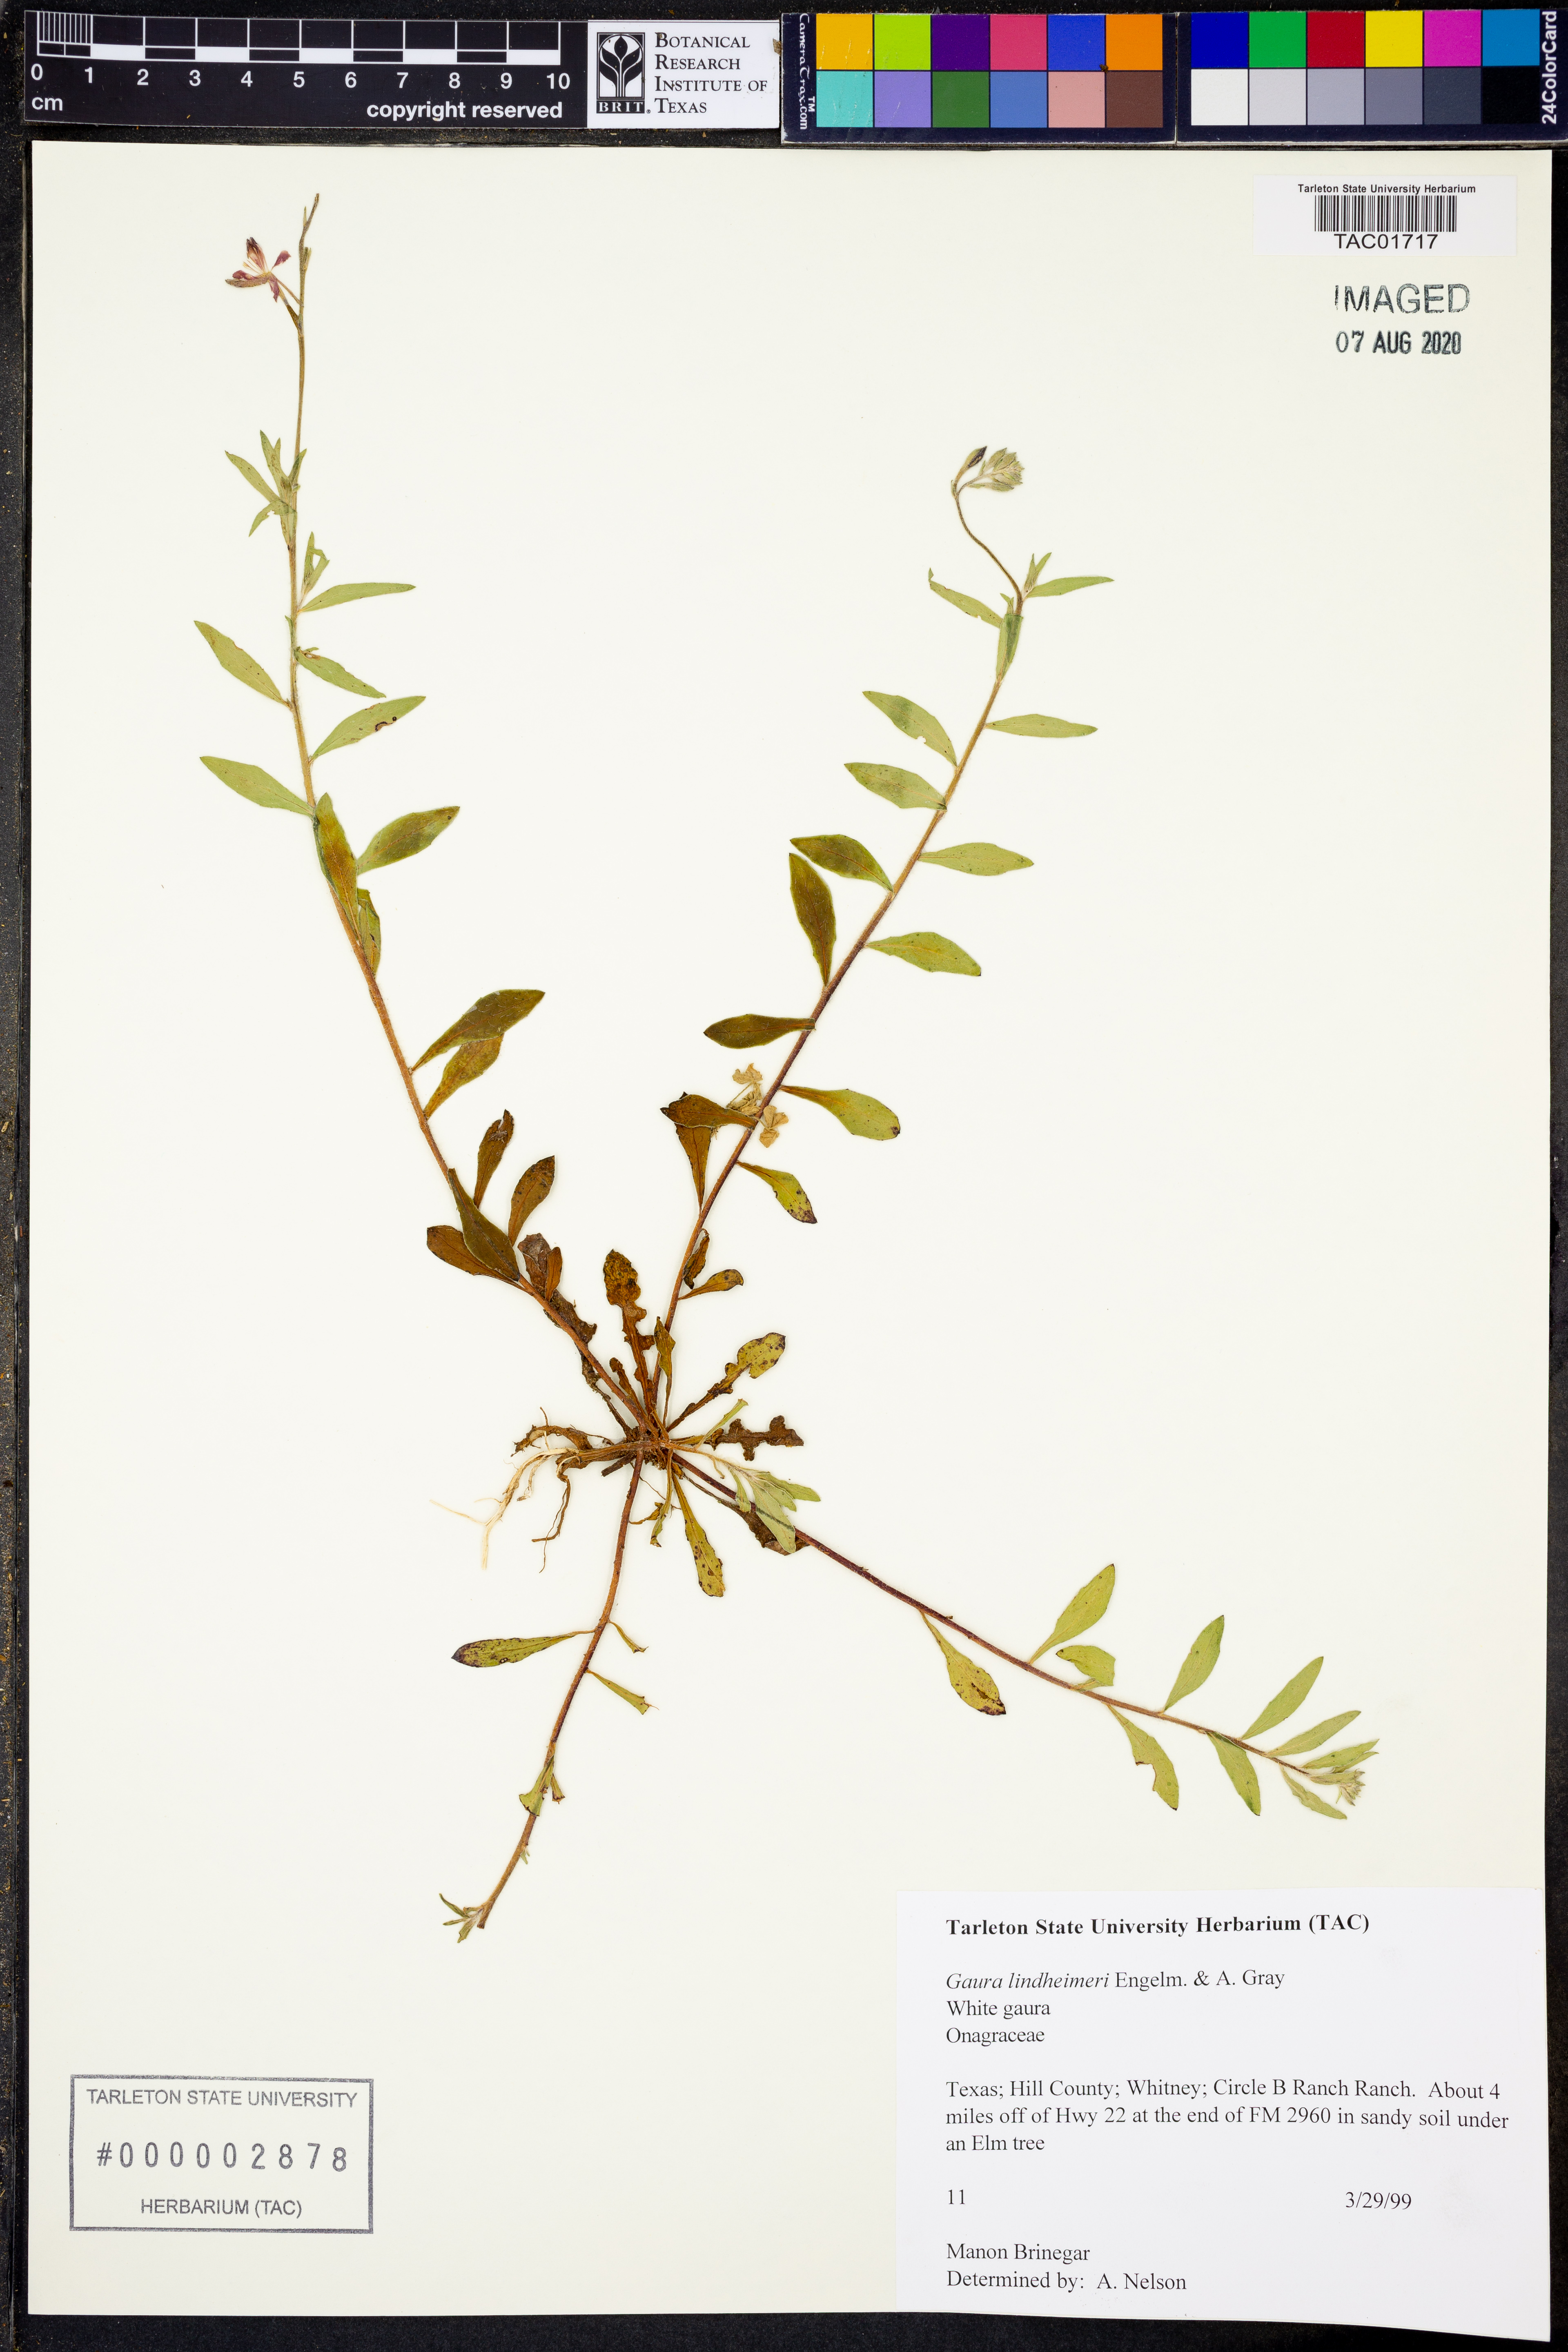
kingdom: Plantae
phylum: Tracheophyta
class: Magnoliopsida
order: Myrtales
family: Onagraceae
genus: Oenothera
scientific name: Oenothera lindheimeri
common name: Lindheimer's beeblossom
